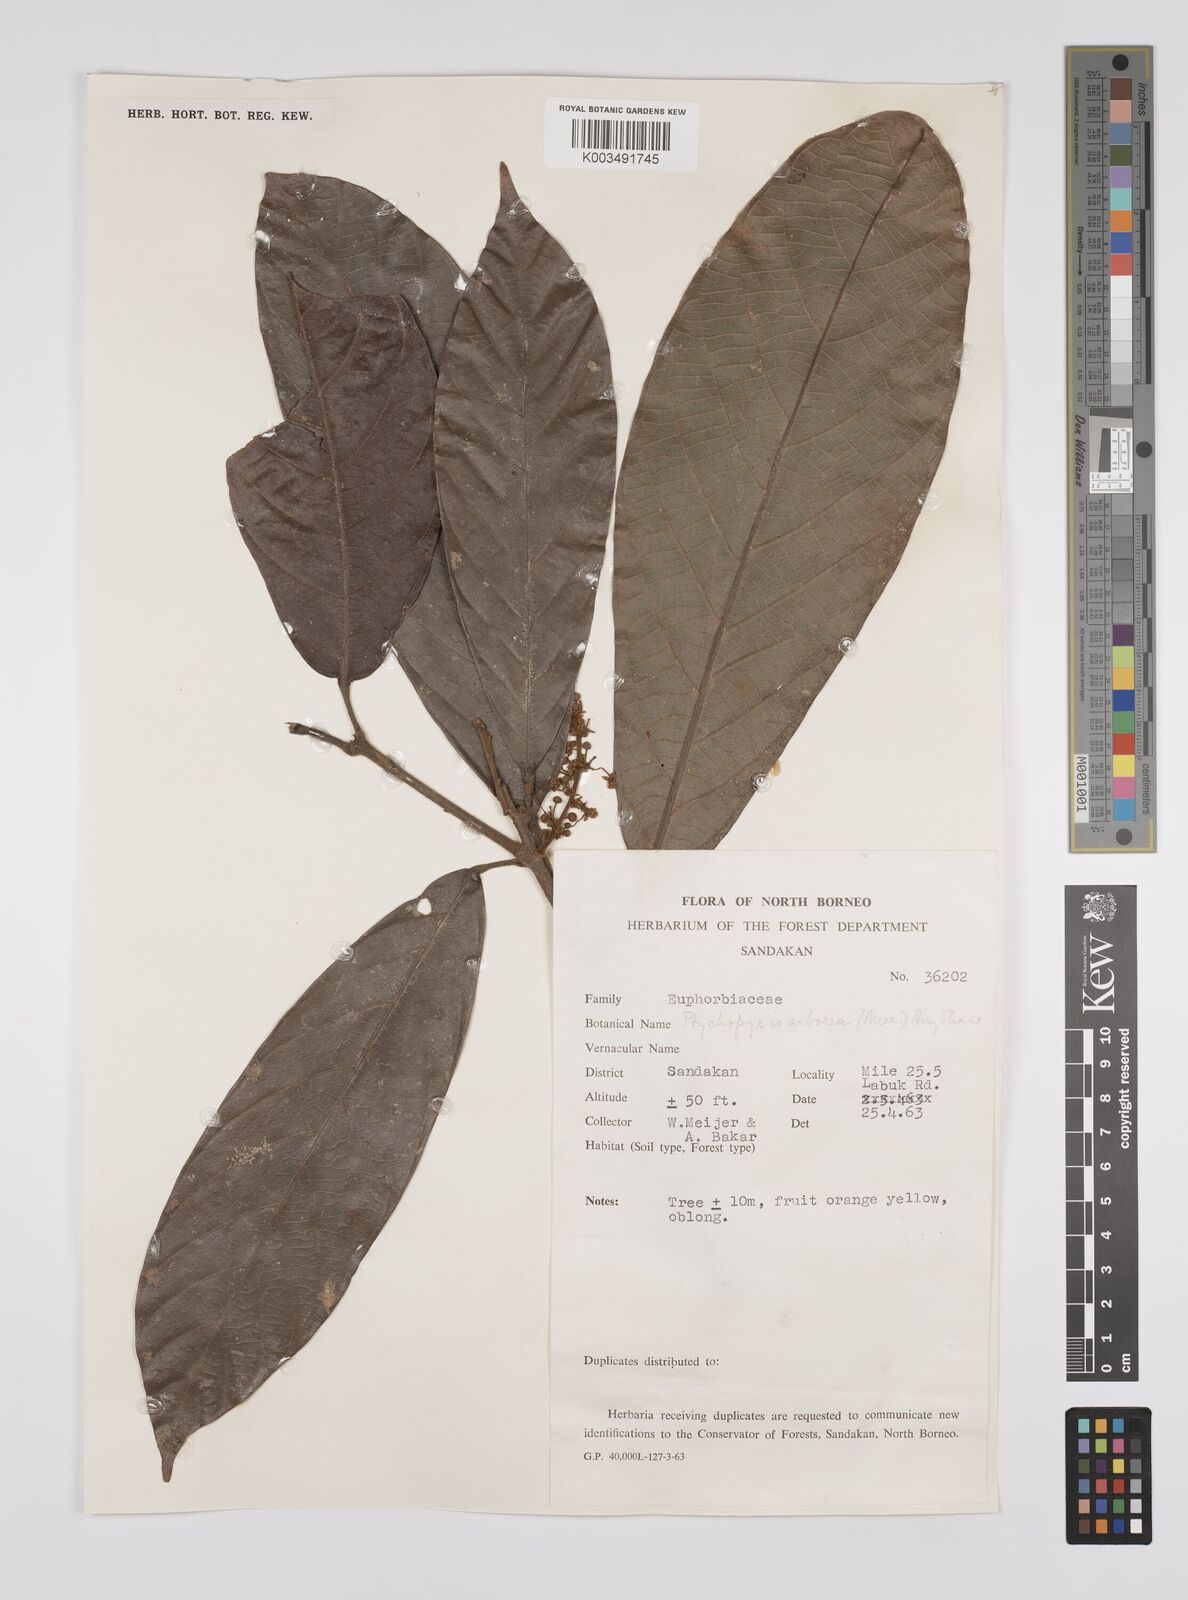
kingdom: Plantae
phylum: Tracheophyta
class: Magnoliopsida
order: Malpighiales
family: Euphorbiaceae
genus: Ptychopyxis
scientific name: Ptychopyxis arborea
